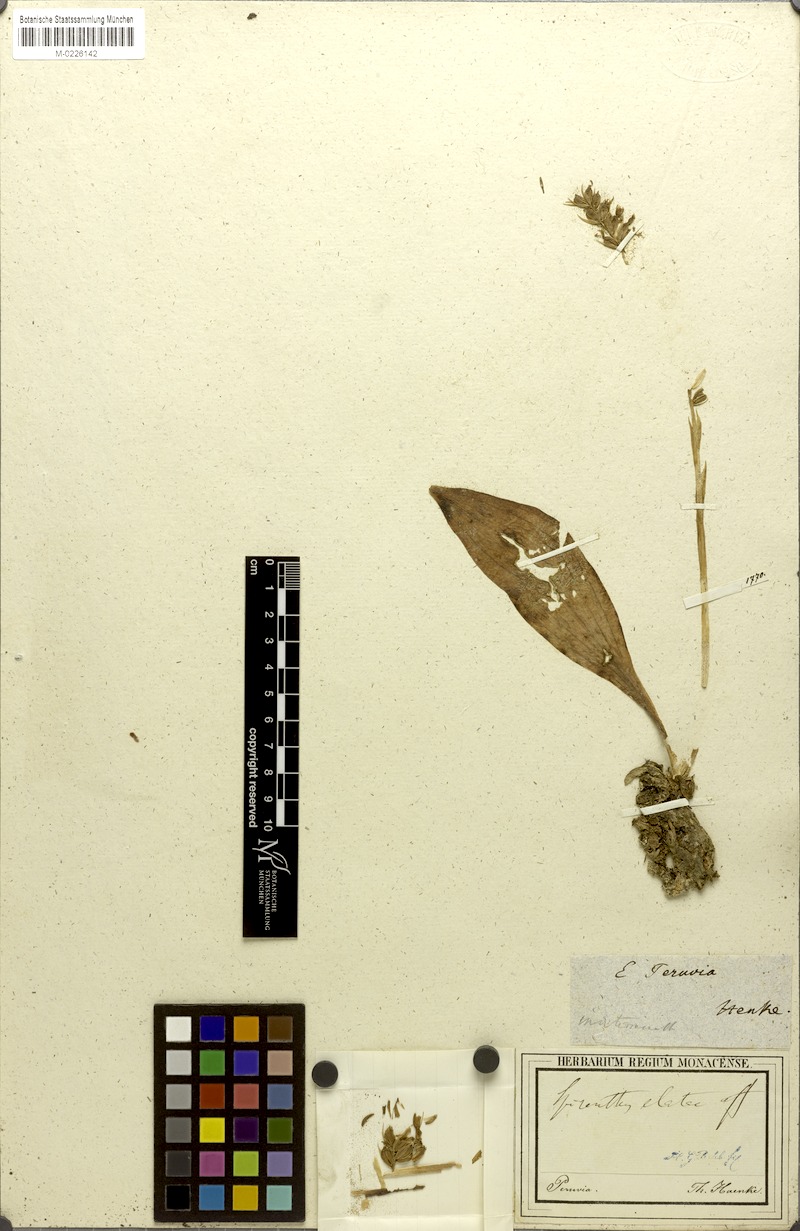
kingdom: Plantae
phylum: Tracheophyta
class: Liliopsida
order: Asparagales
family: Orchidaceae
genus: Cyclopogon
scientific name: Cyclopogon ovalifolius
